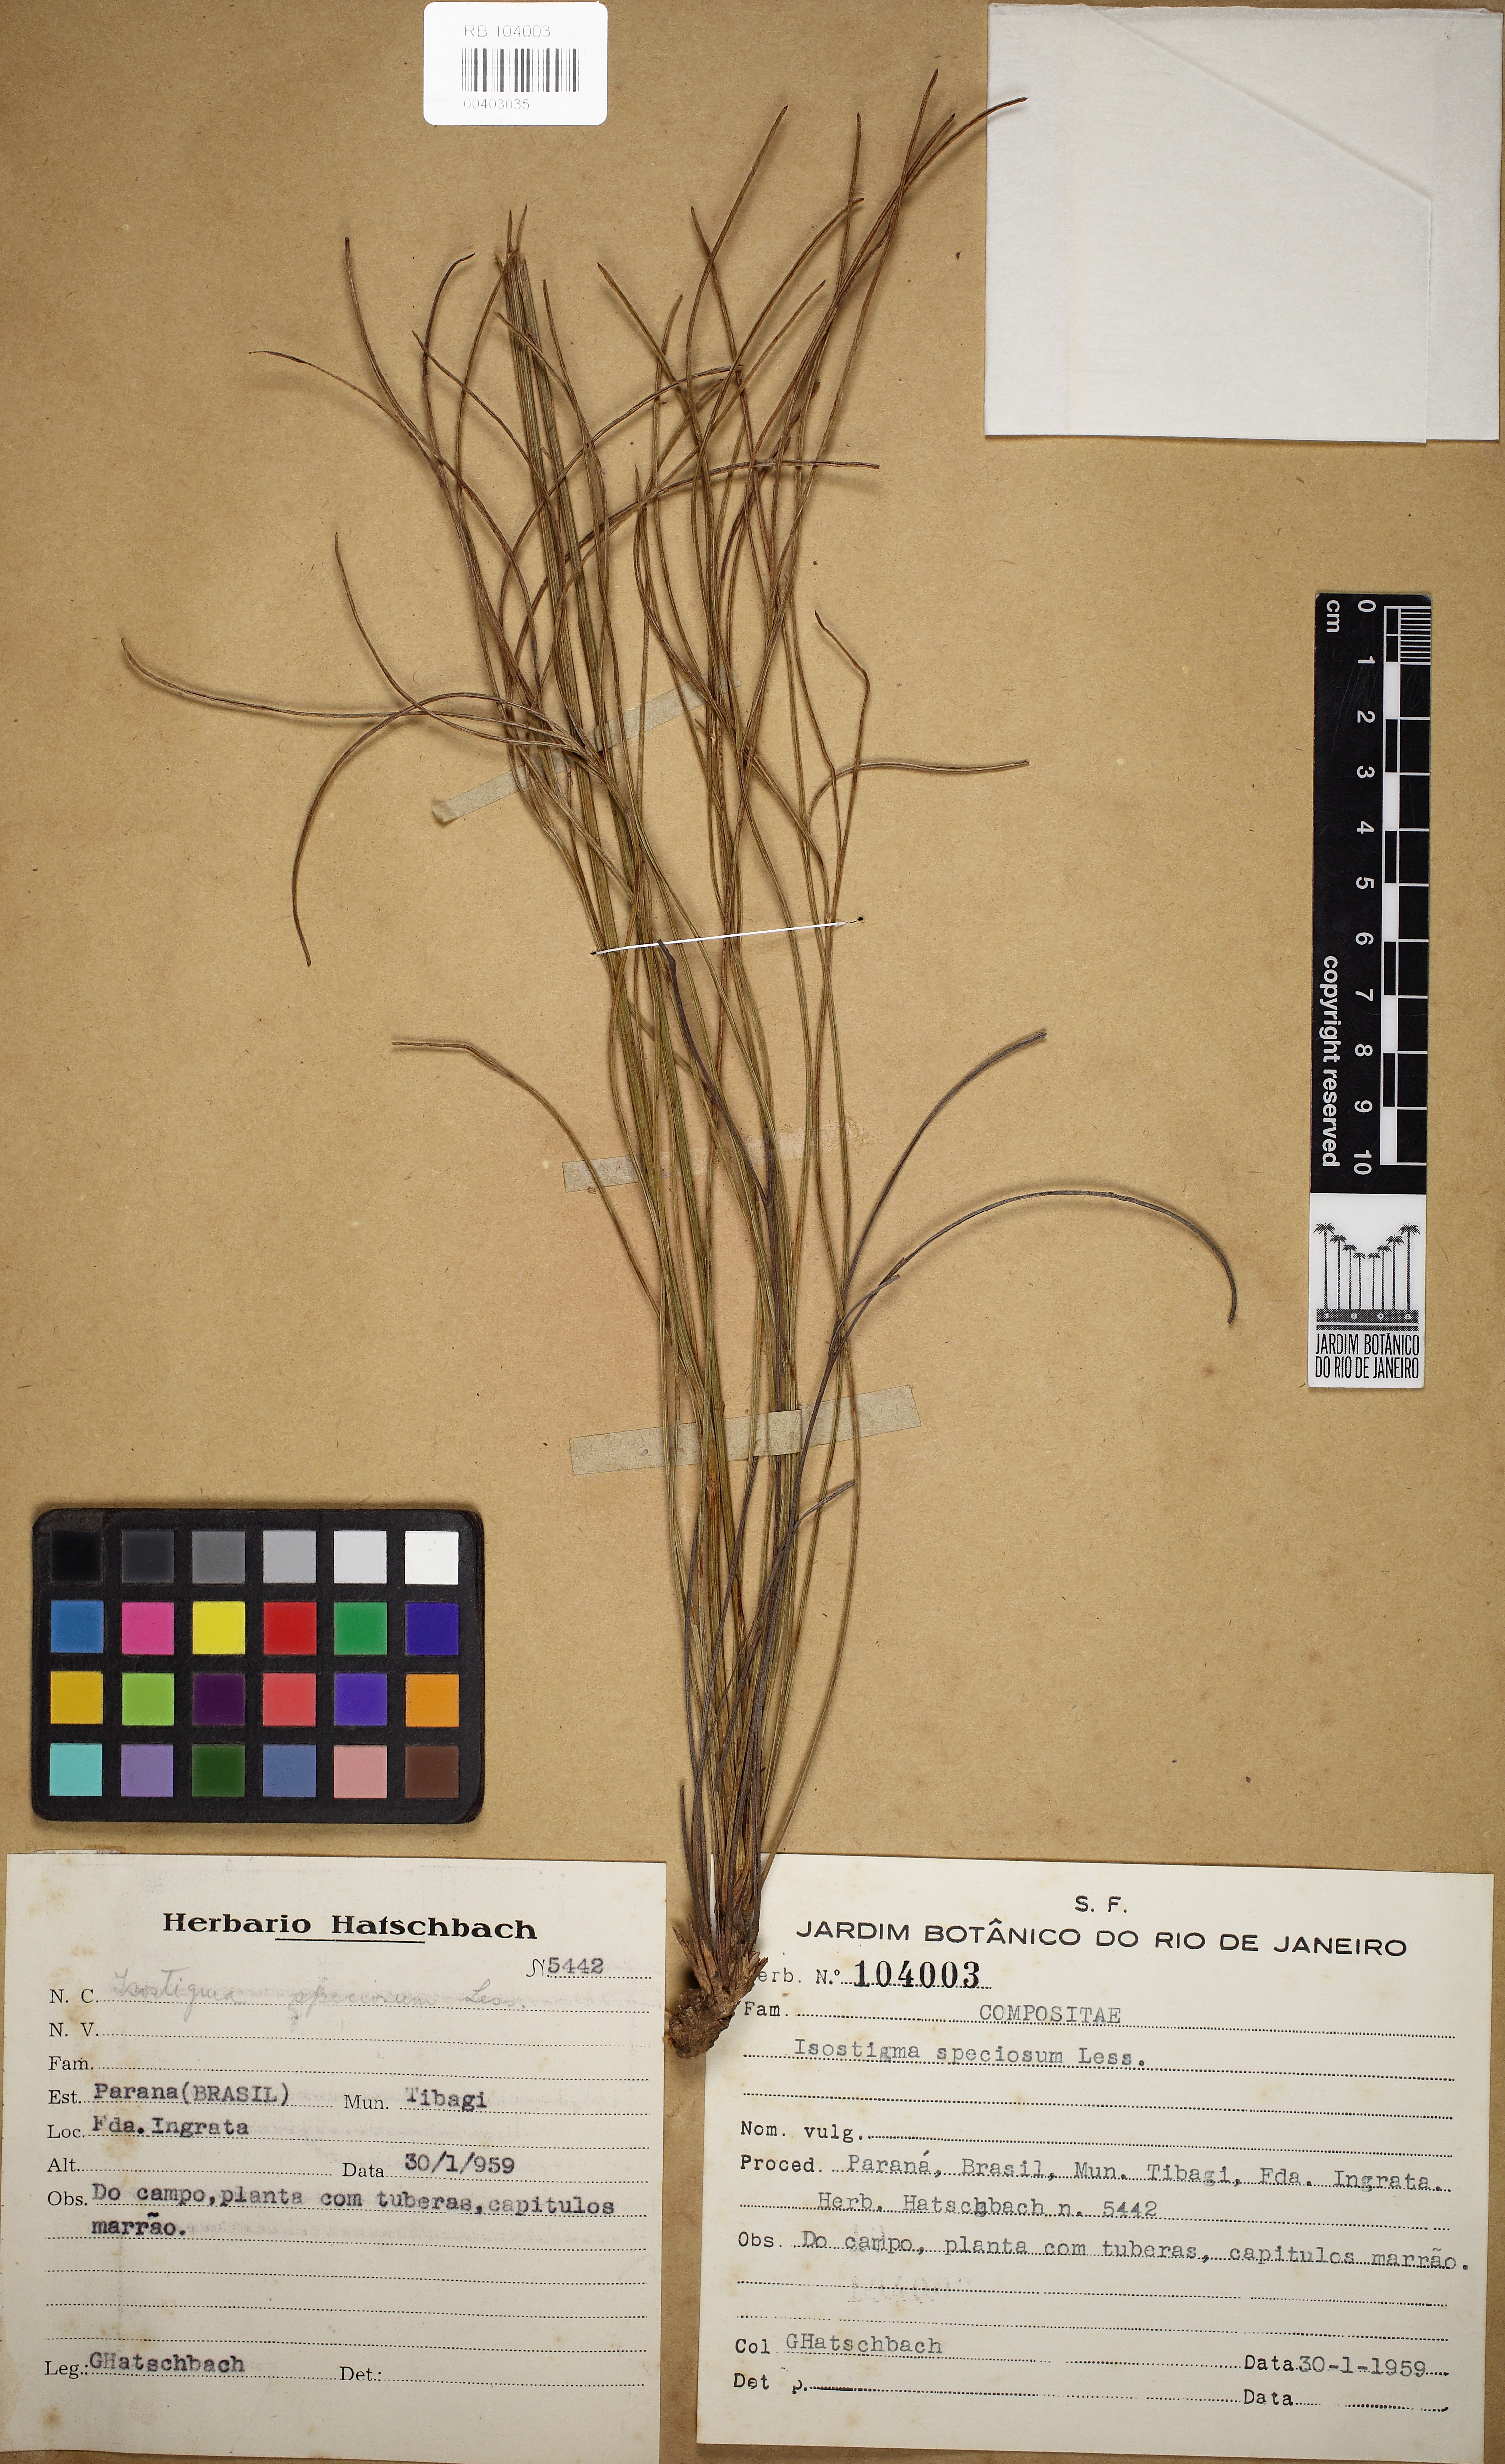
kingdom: Plantae
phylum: Tracheophyta
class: Magnoliopsida
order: Asterales
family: Asteraceae
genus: Isostigma
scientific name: Isostigma peucedanifolium
